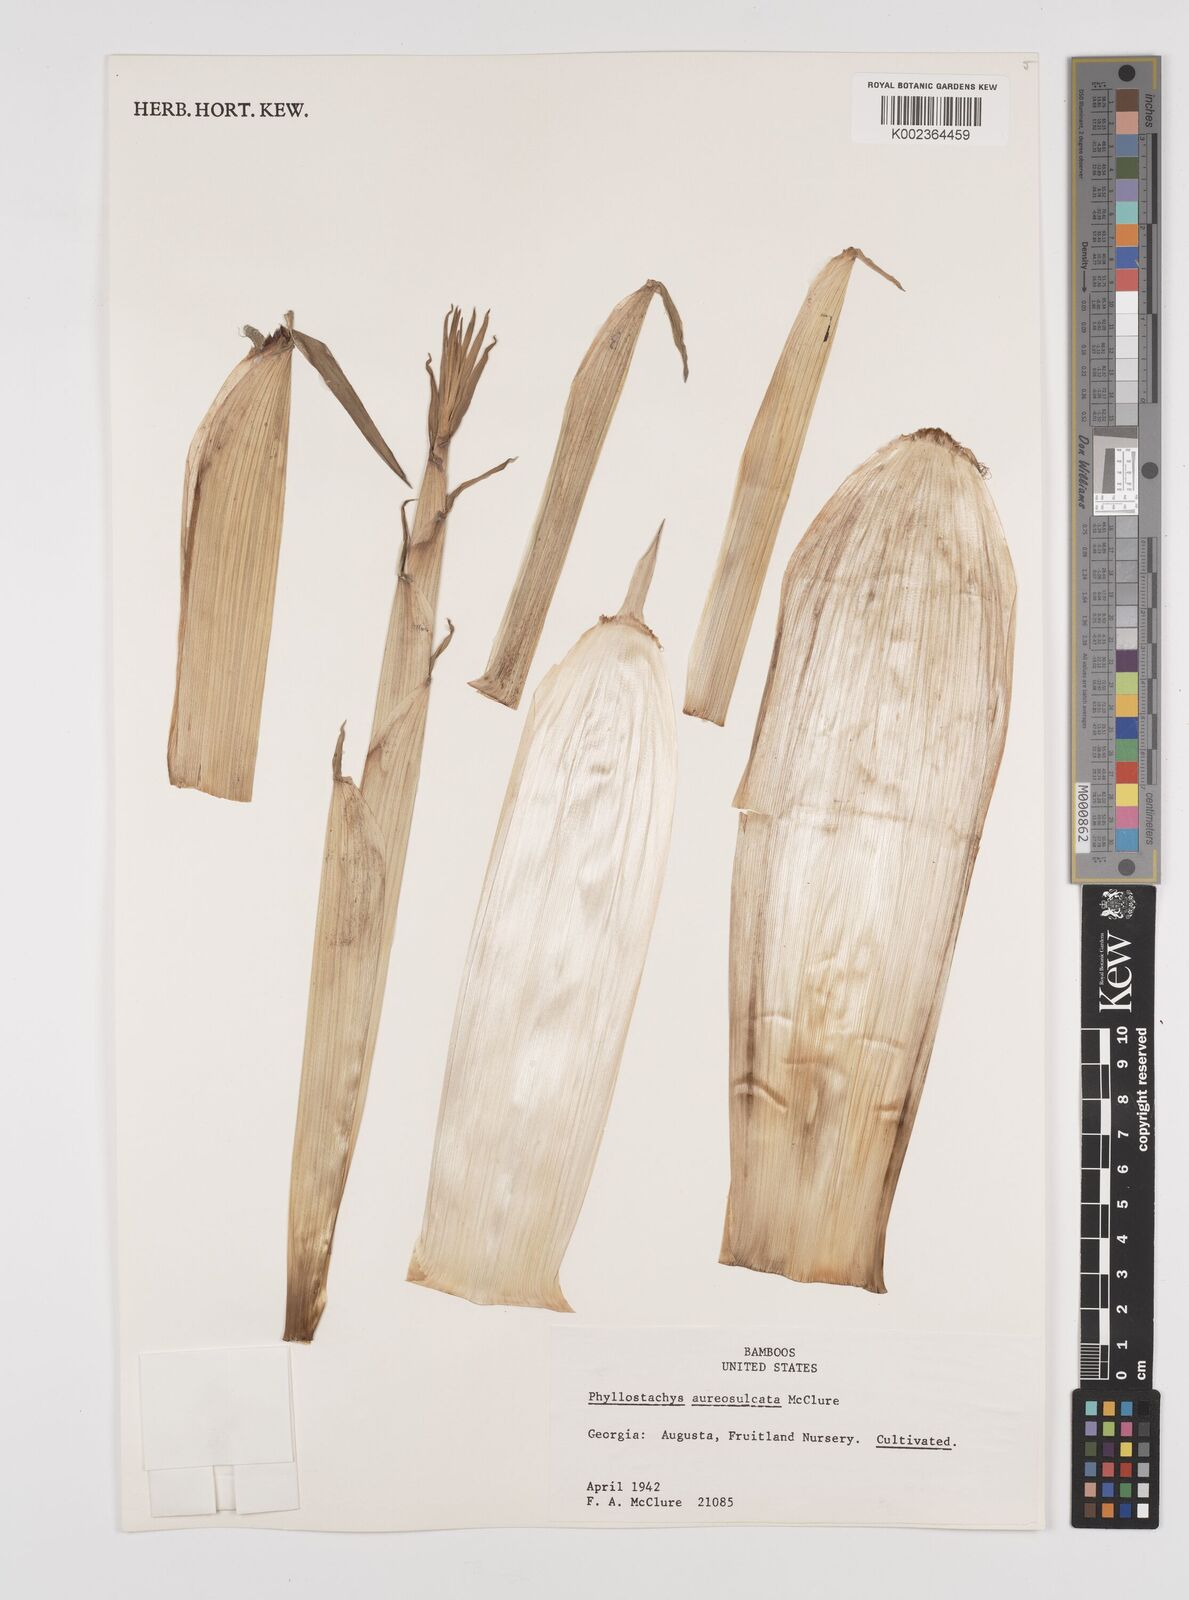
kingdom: Plantae
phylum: Tracheophyta
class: Liliopsida
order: Poales
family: Poaceae
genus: Phyllostachys
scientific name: Phyllostachys aureosulcata
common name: Yellow groove bamboo
